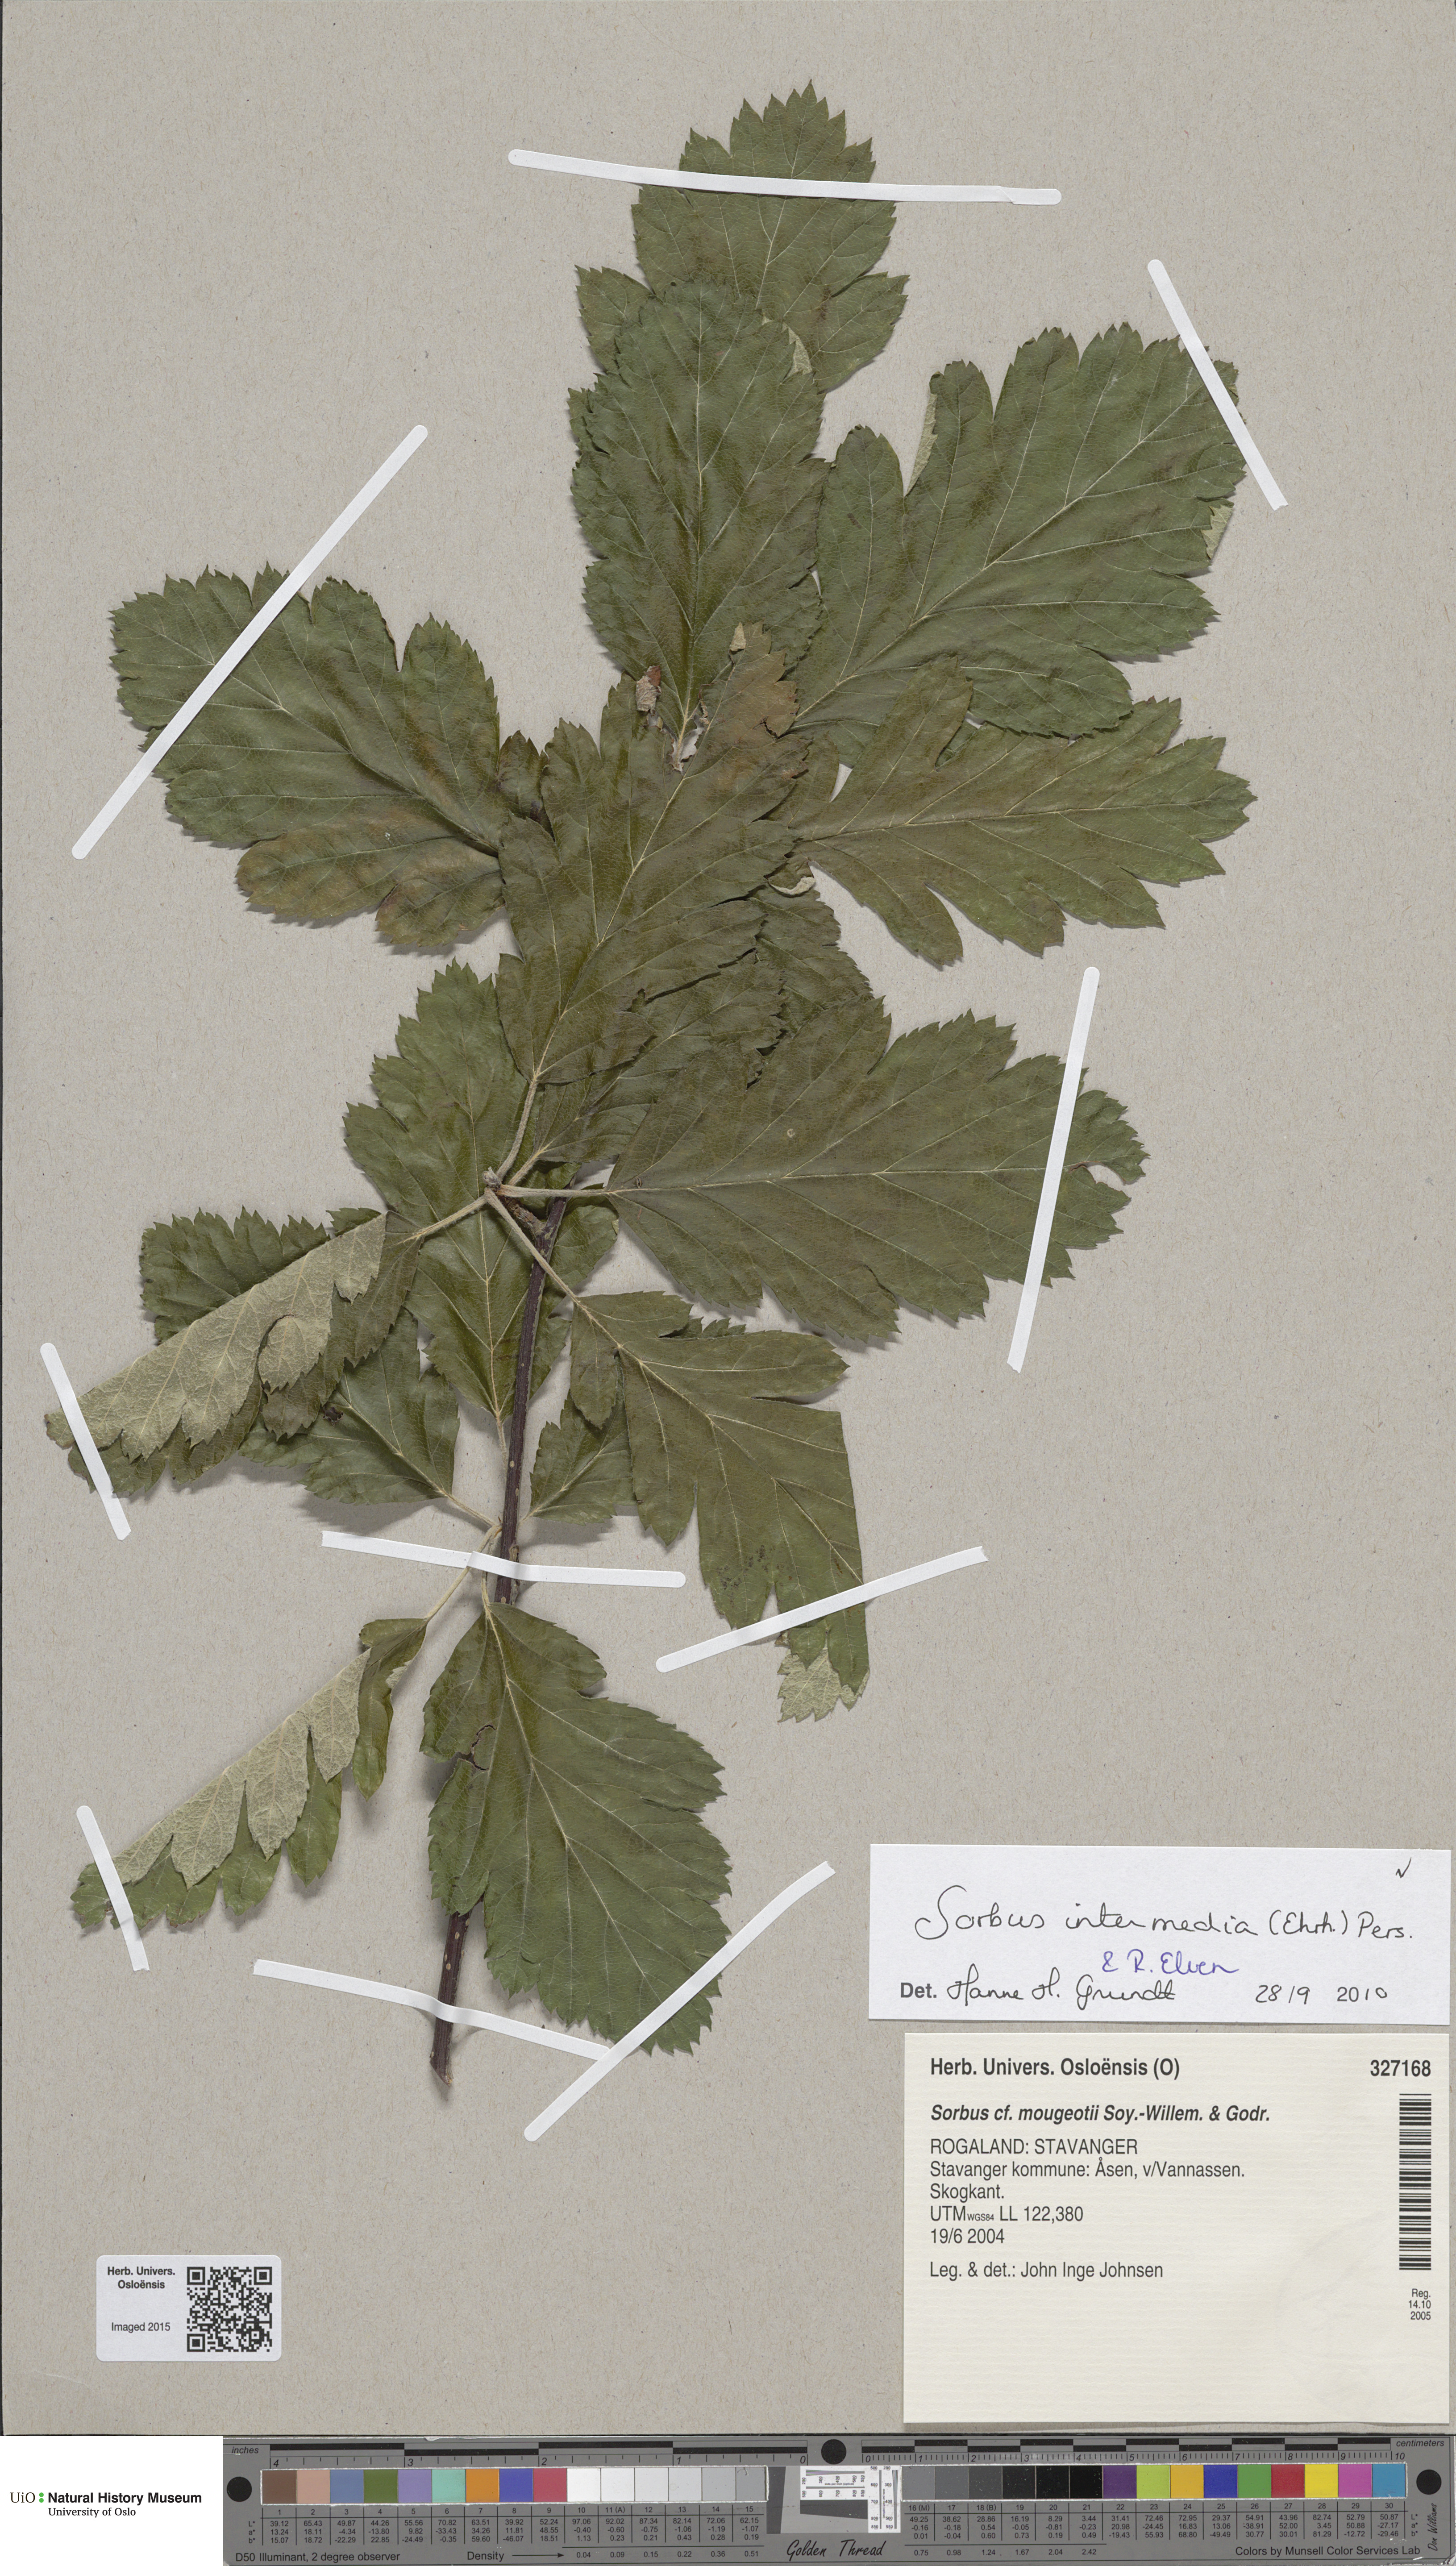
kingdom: Plantae
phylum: Tracheophyta
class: Magnoliopsida
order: Rosales
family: Rosaceae
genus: Scandosorbus
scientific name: Scandosorbus intermedia
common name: Swedish whitebeam
